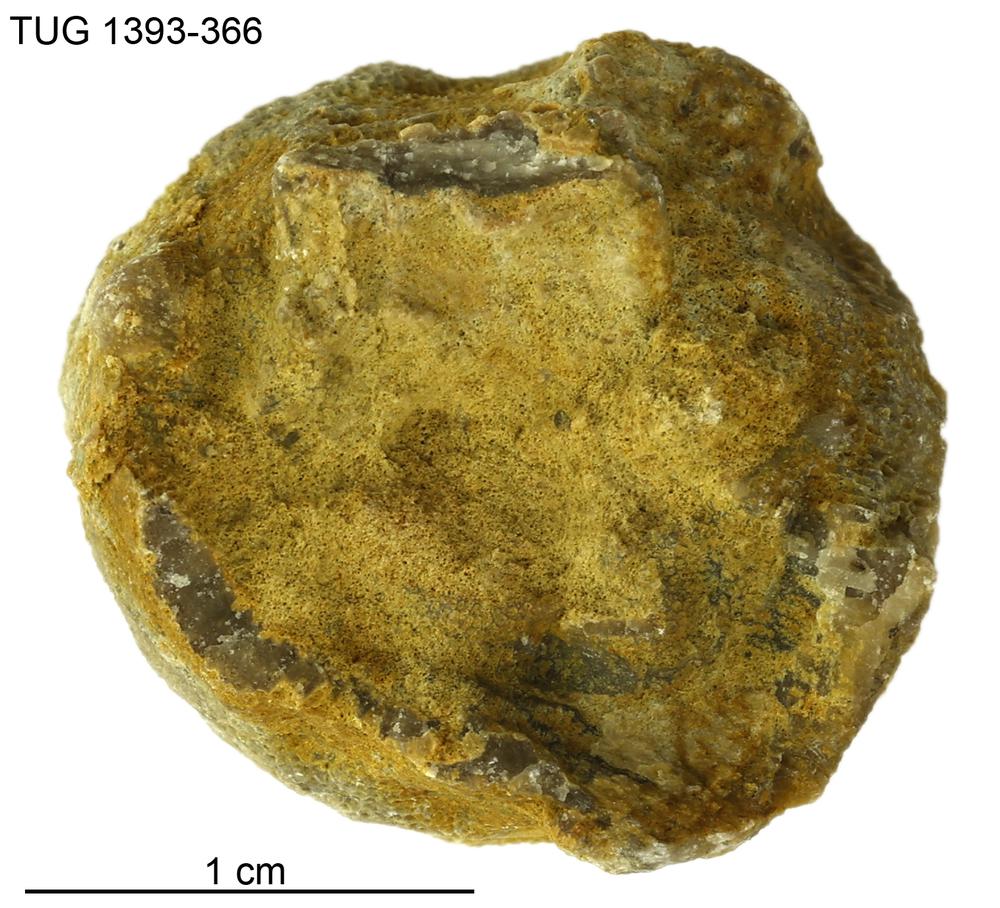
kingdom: Animalia
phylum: Bryozoa
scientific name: Bryozoa
